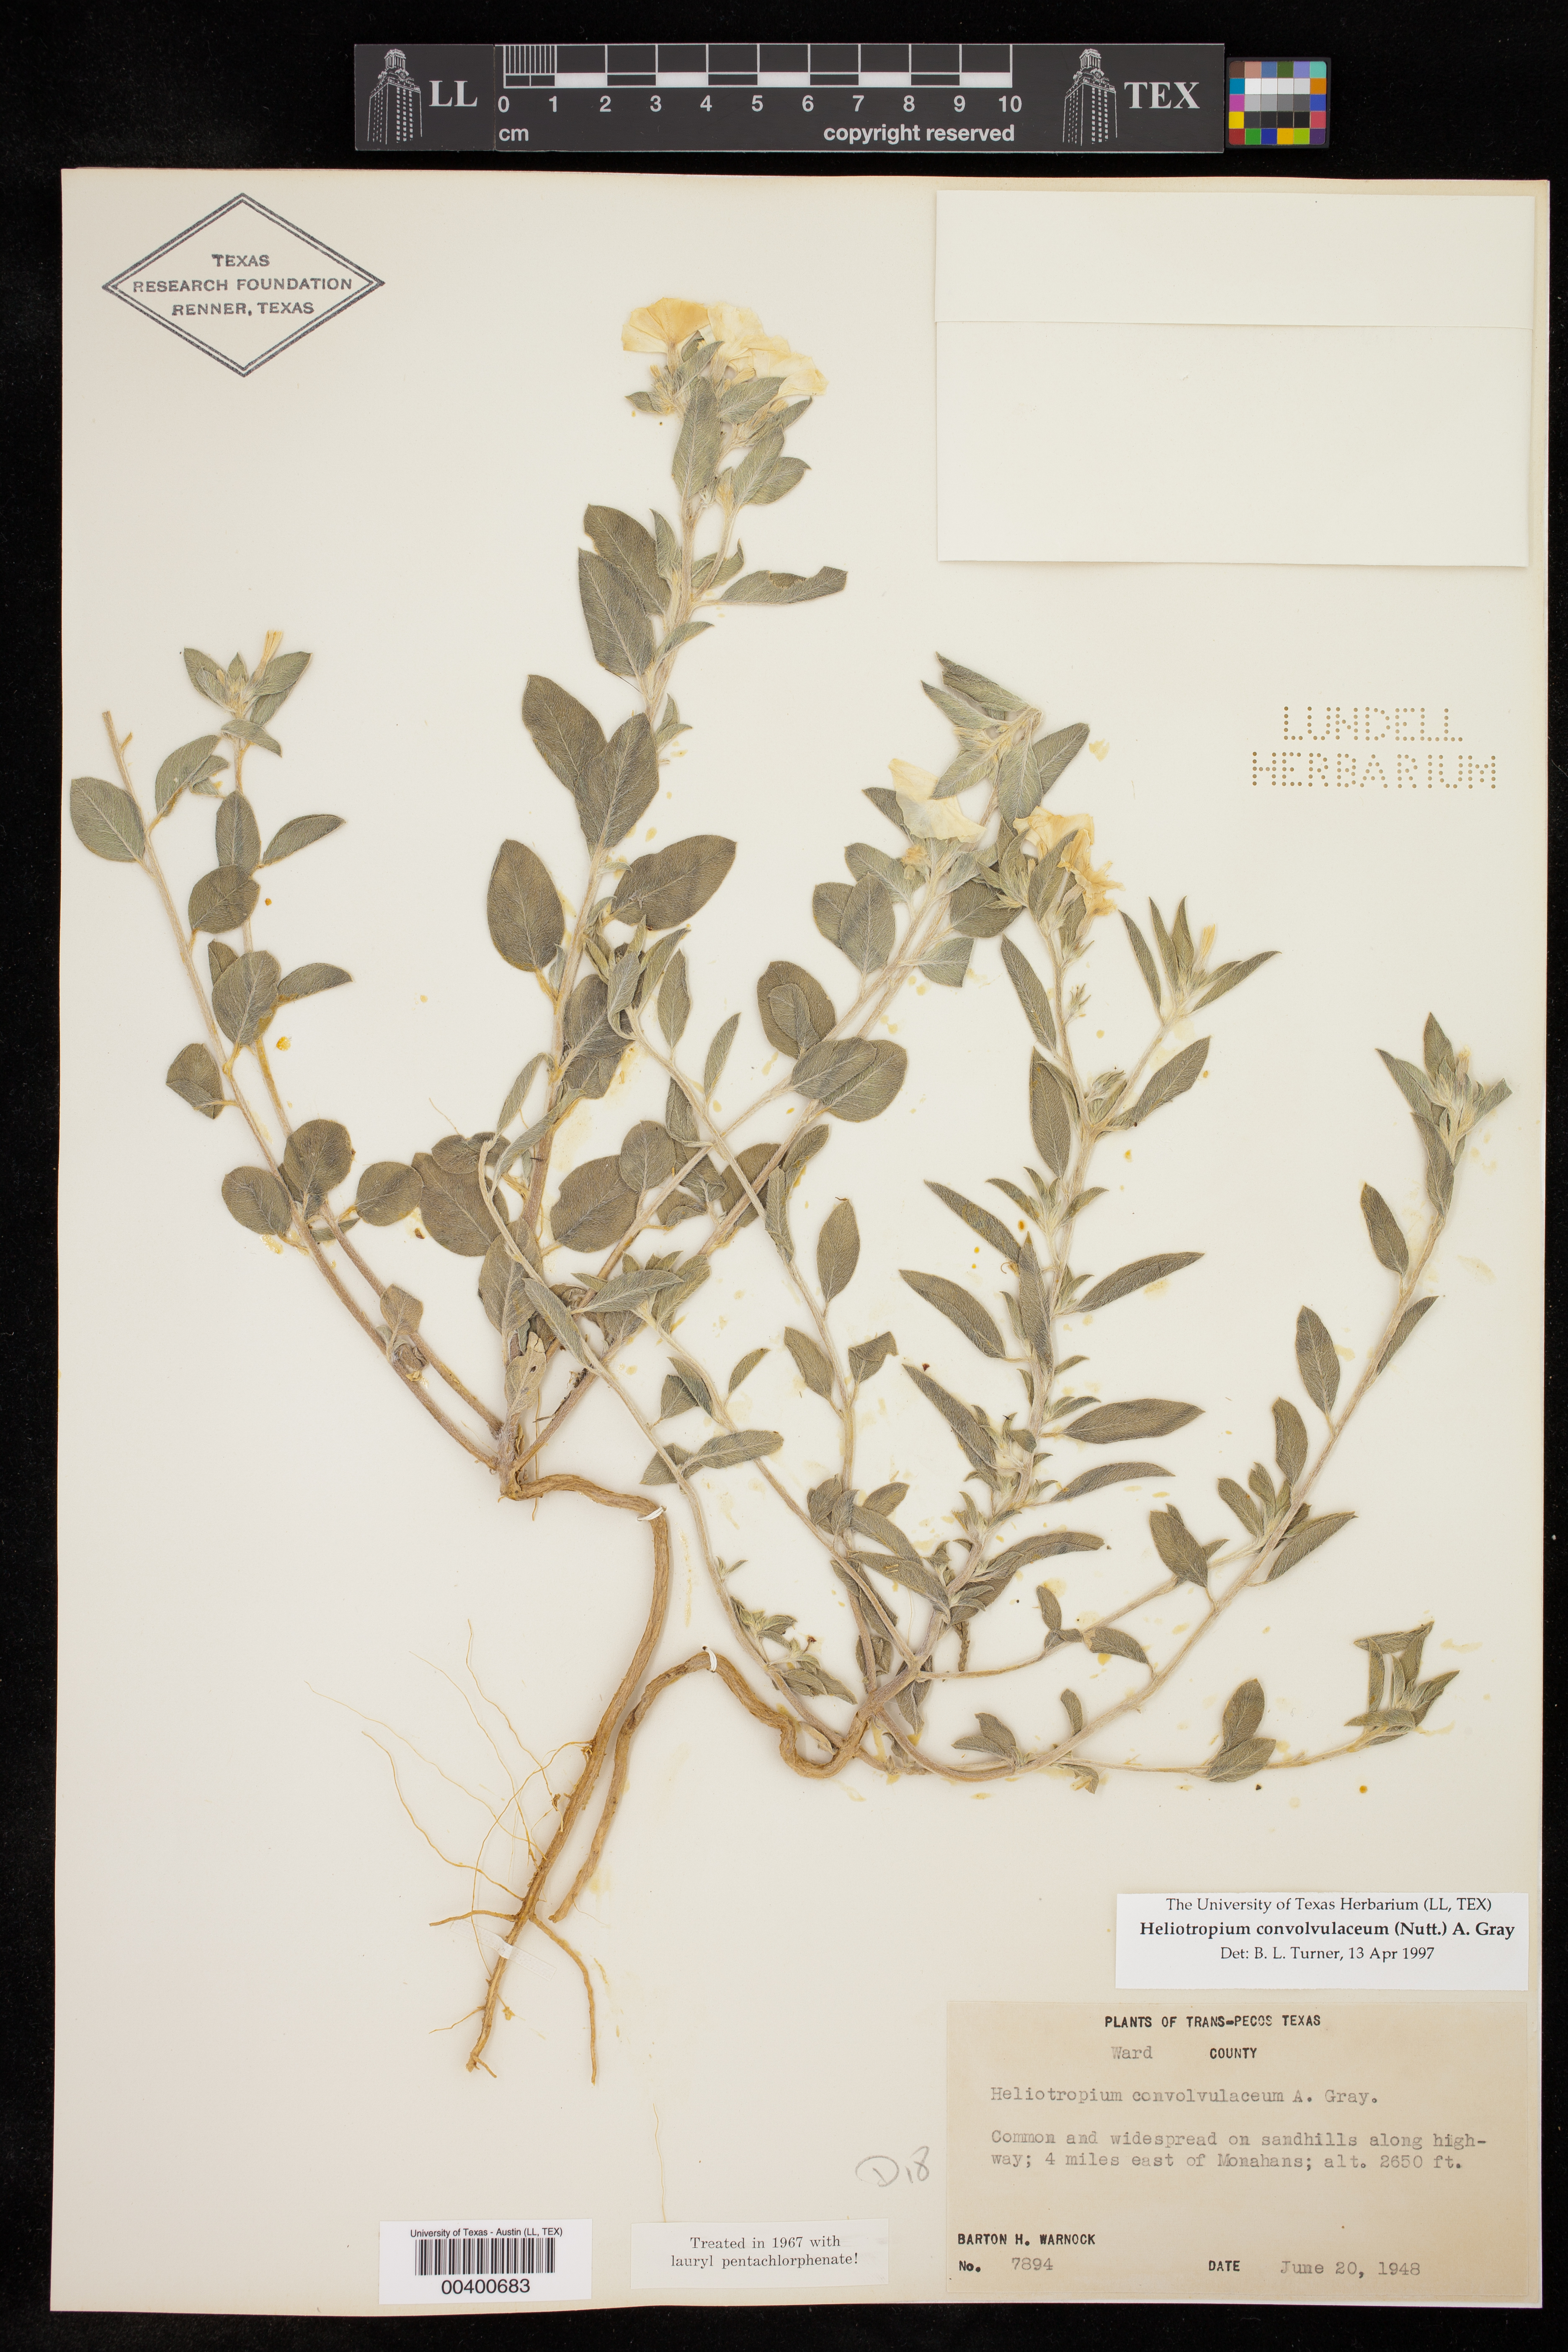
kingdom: Plantae
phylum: Tracheophyta
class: Magnoliopsida
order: Boraginales
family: Heliotropiaceae
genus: Euploca
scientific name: Euploca convolvulacea
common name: Bindweed heliotrope
